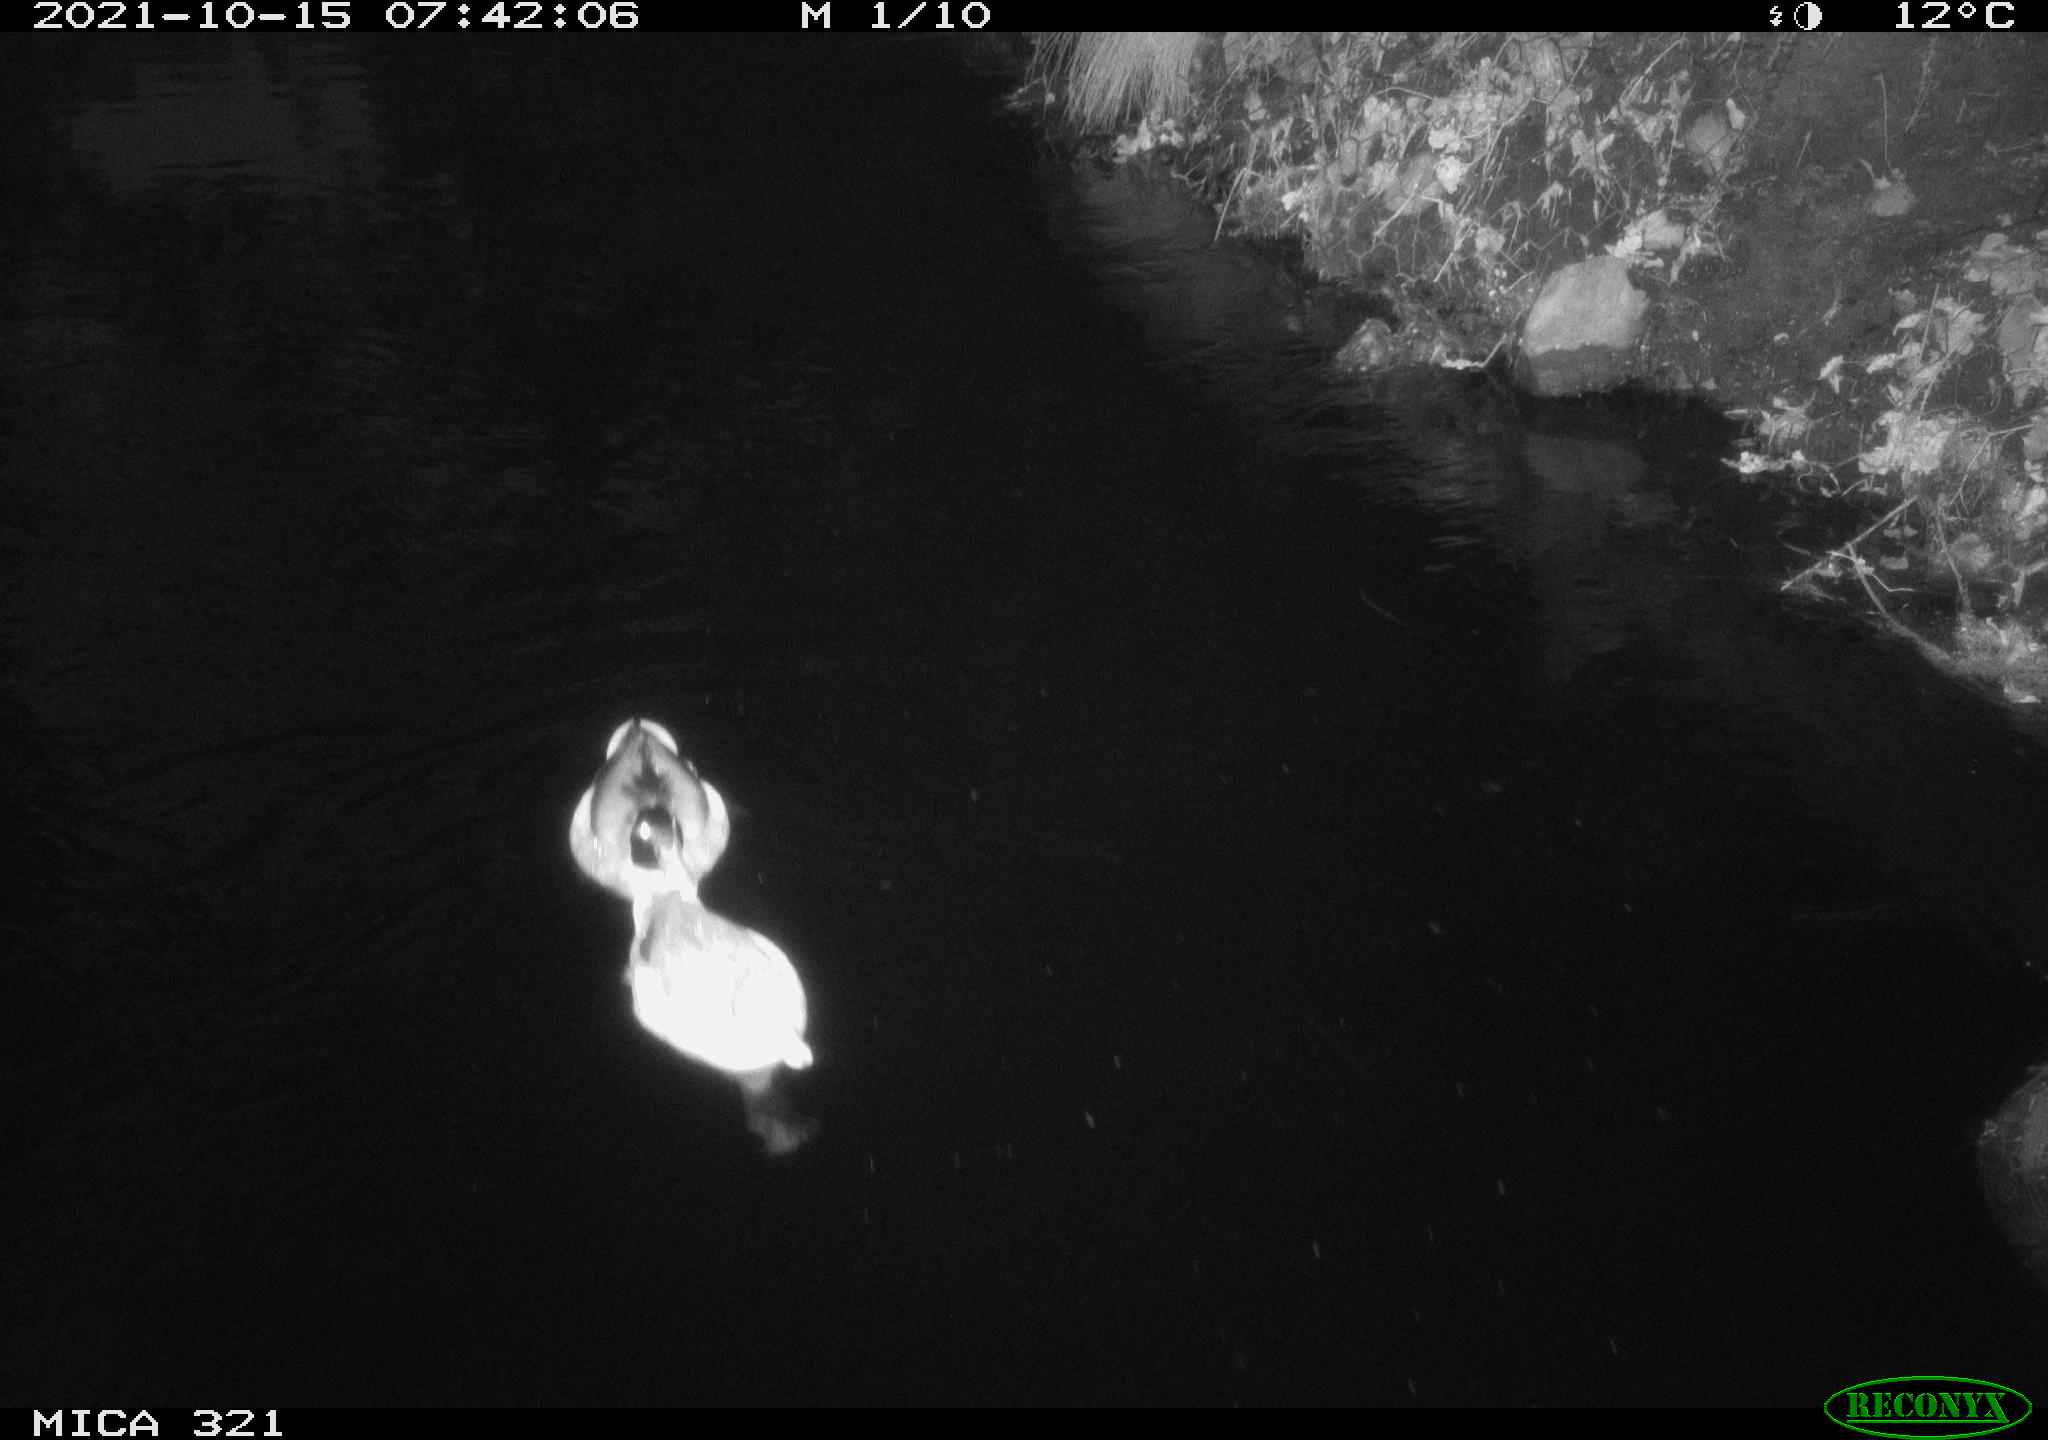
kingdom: Animalia
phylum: Chordata
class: Aves
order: Anseriformes
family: Anatidae
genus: Anas
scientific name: Anas platyrhynchos
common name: Mallard
